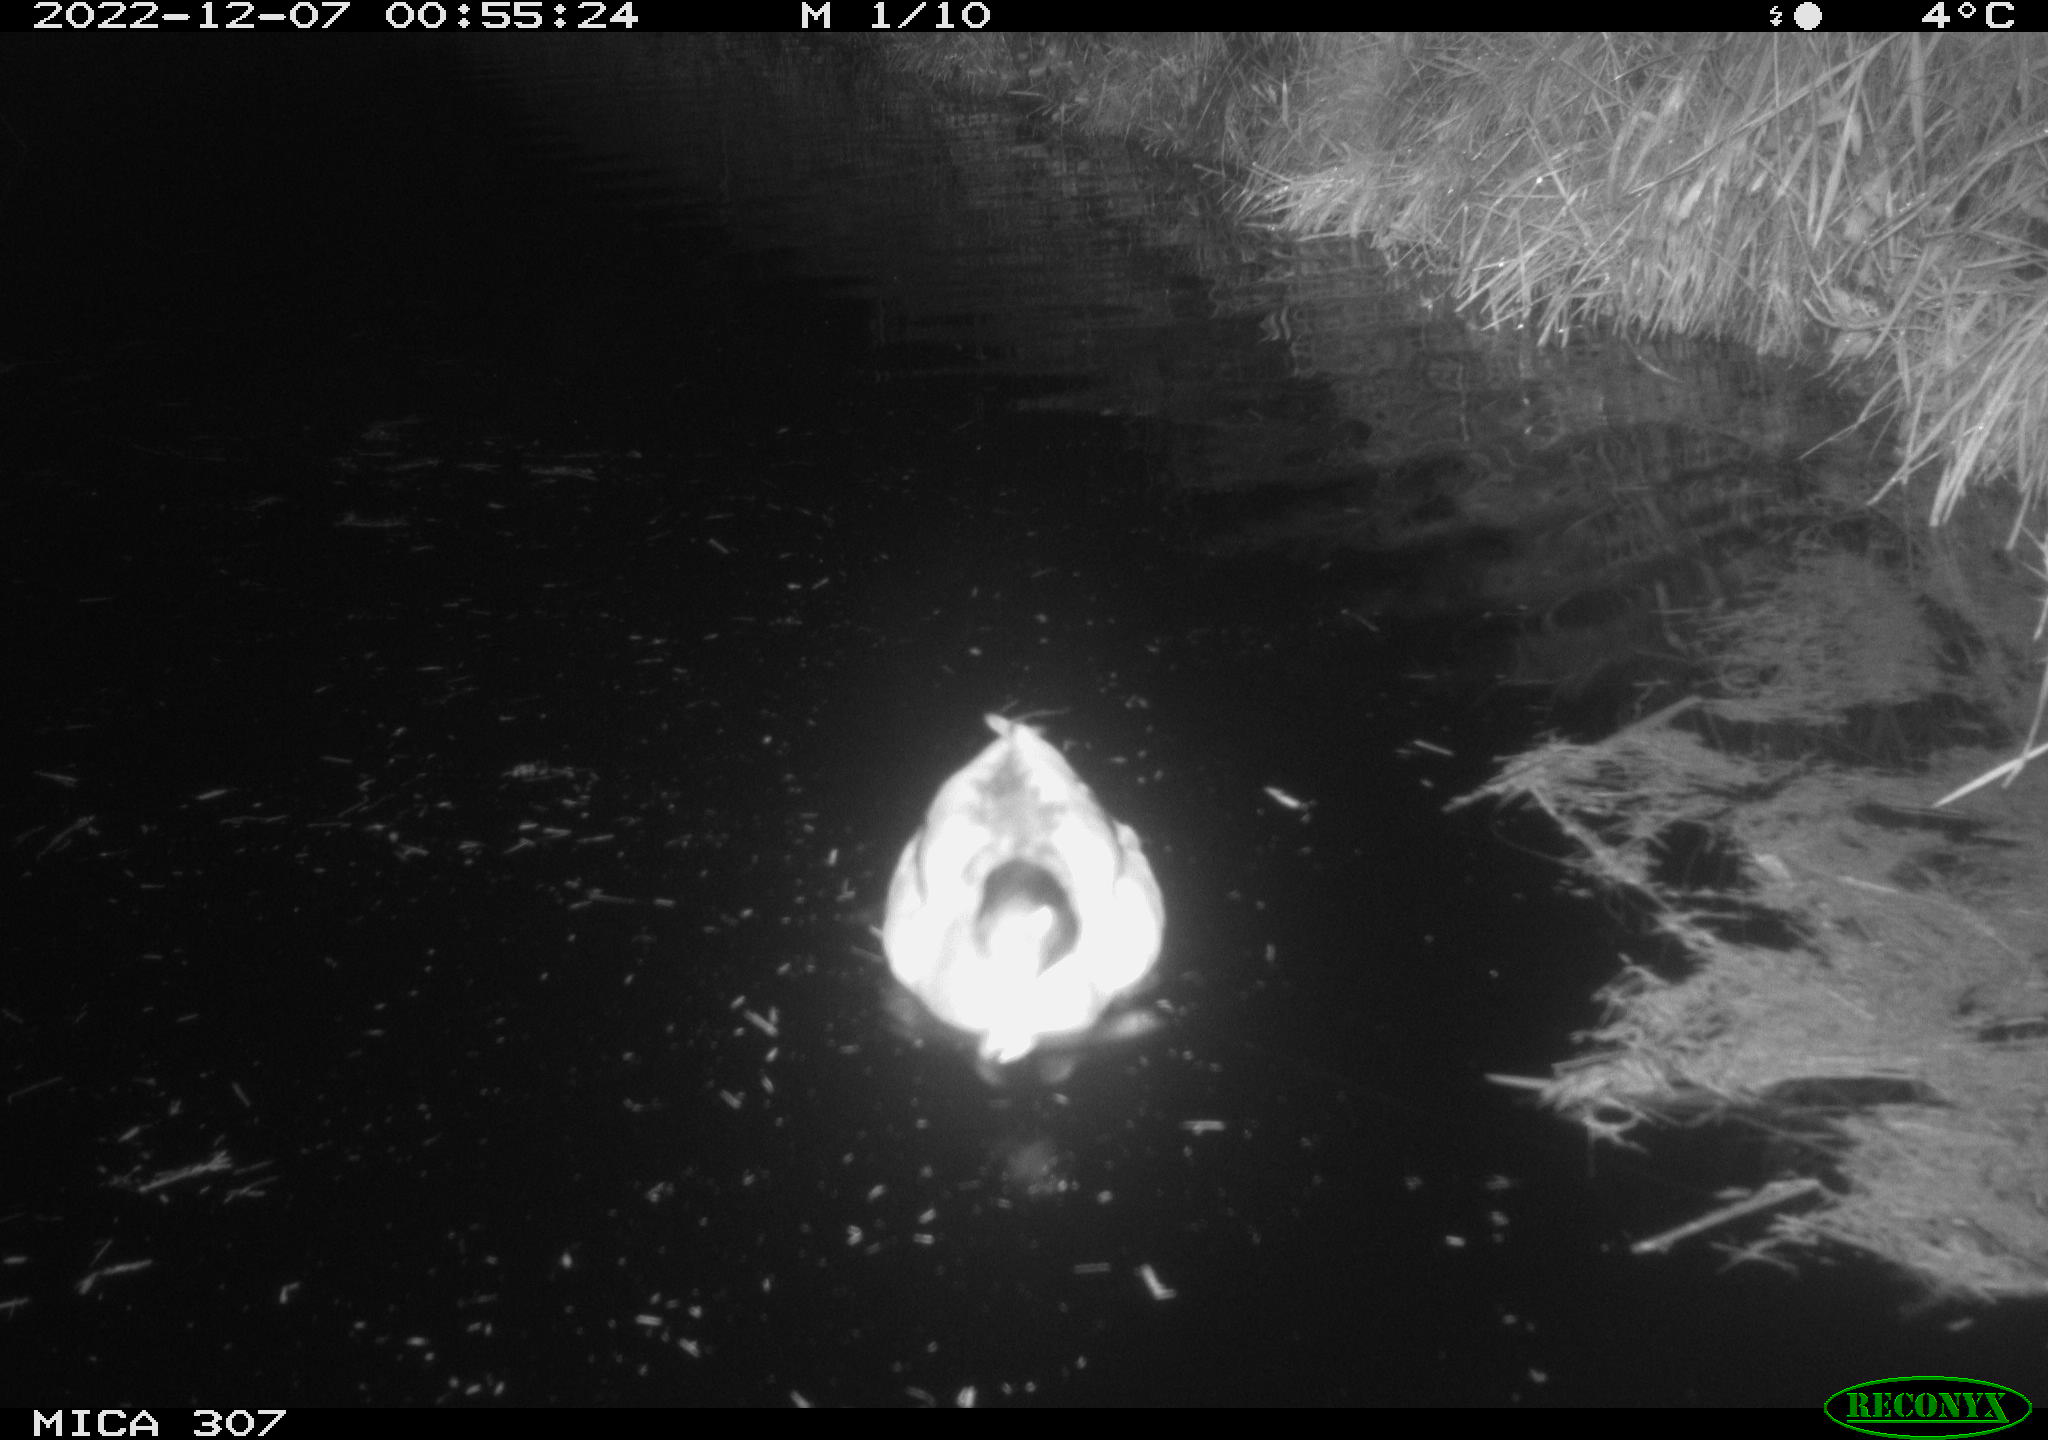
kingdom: Animalia
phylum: Chordata
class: Aves
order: Anseriformes
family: Anatidae
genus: Anas
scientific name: Anas
